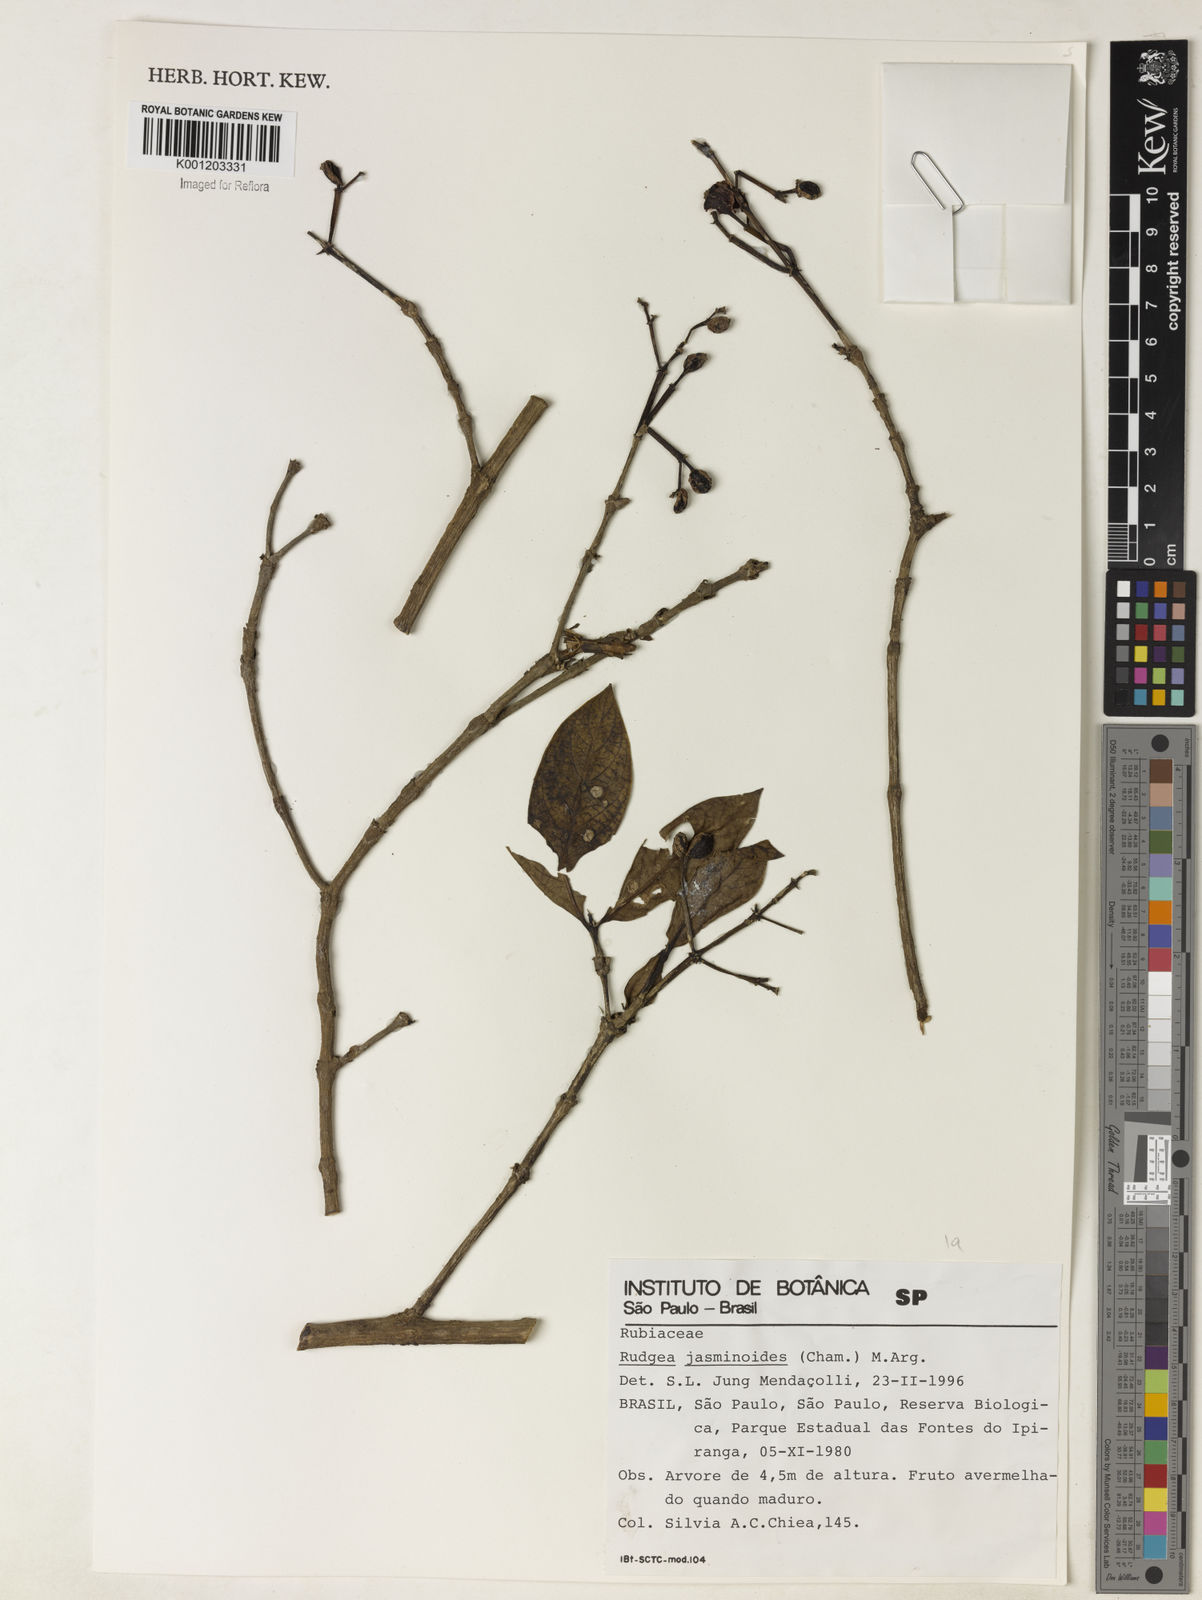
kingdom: Plantae
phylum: Tracheophyta
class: Magnoliopsida
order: Gentianales
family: Rubiaceae
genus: Rudgea
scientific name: Rudgea
